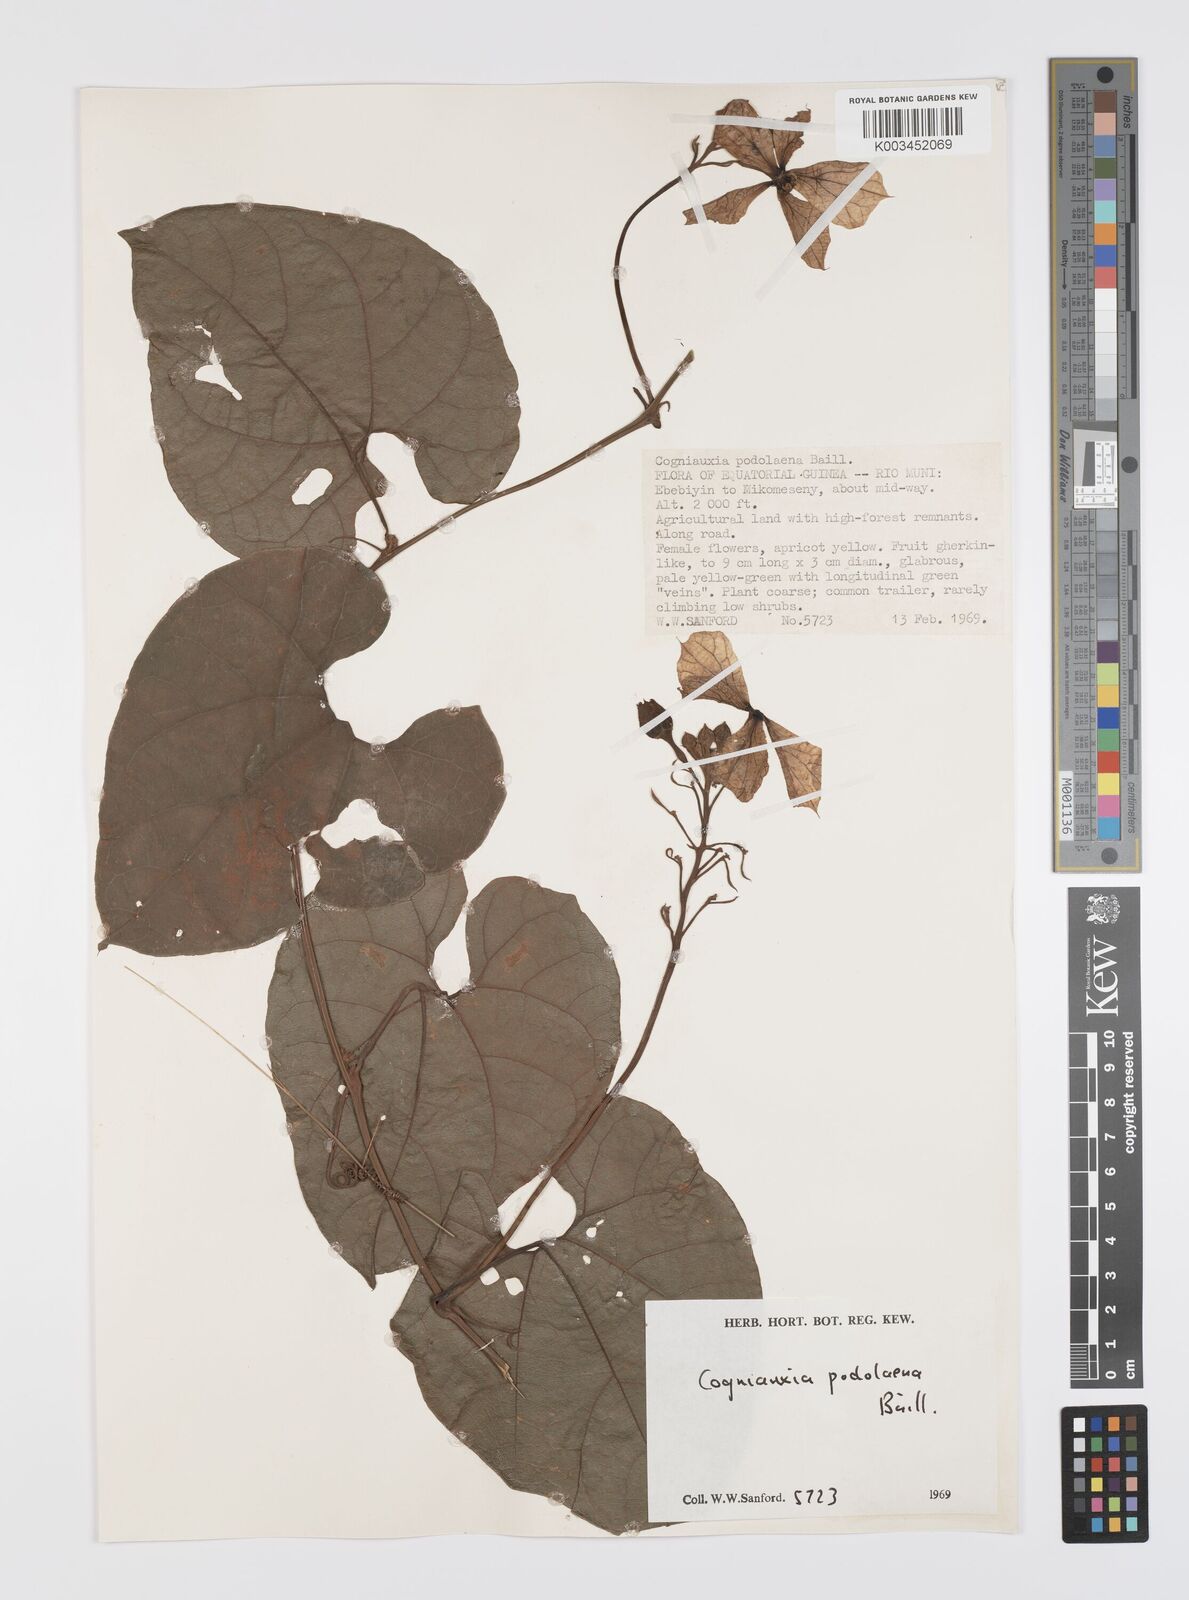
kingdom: Plantae
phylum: Tracheophyta
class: Magnoliopsida
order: Cucurbitales
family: Cucurbitaceae
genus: Cogniauxia
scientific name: Cogniauxia podolaena
